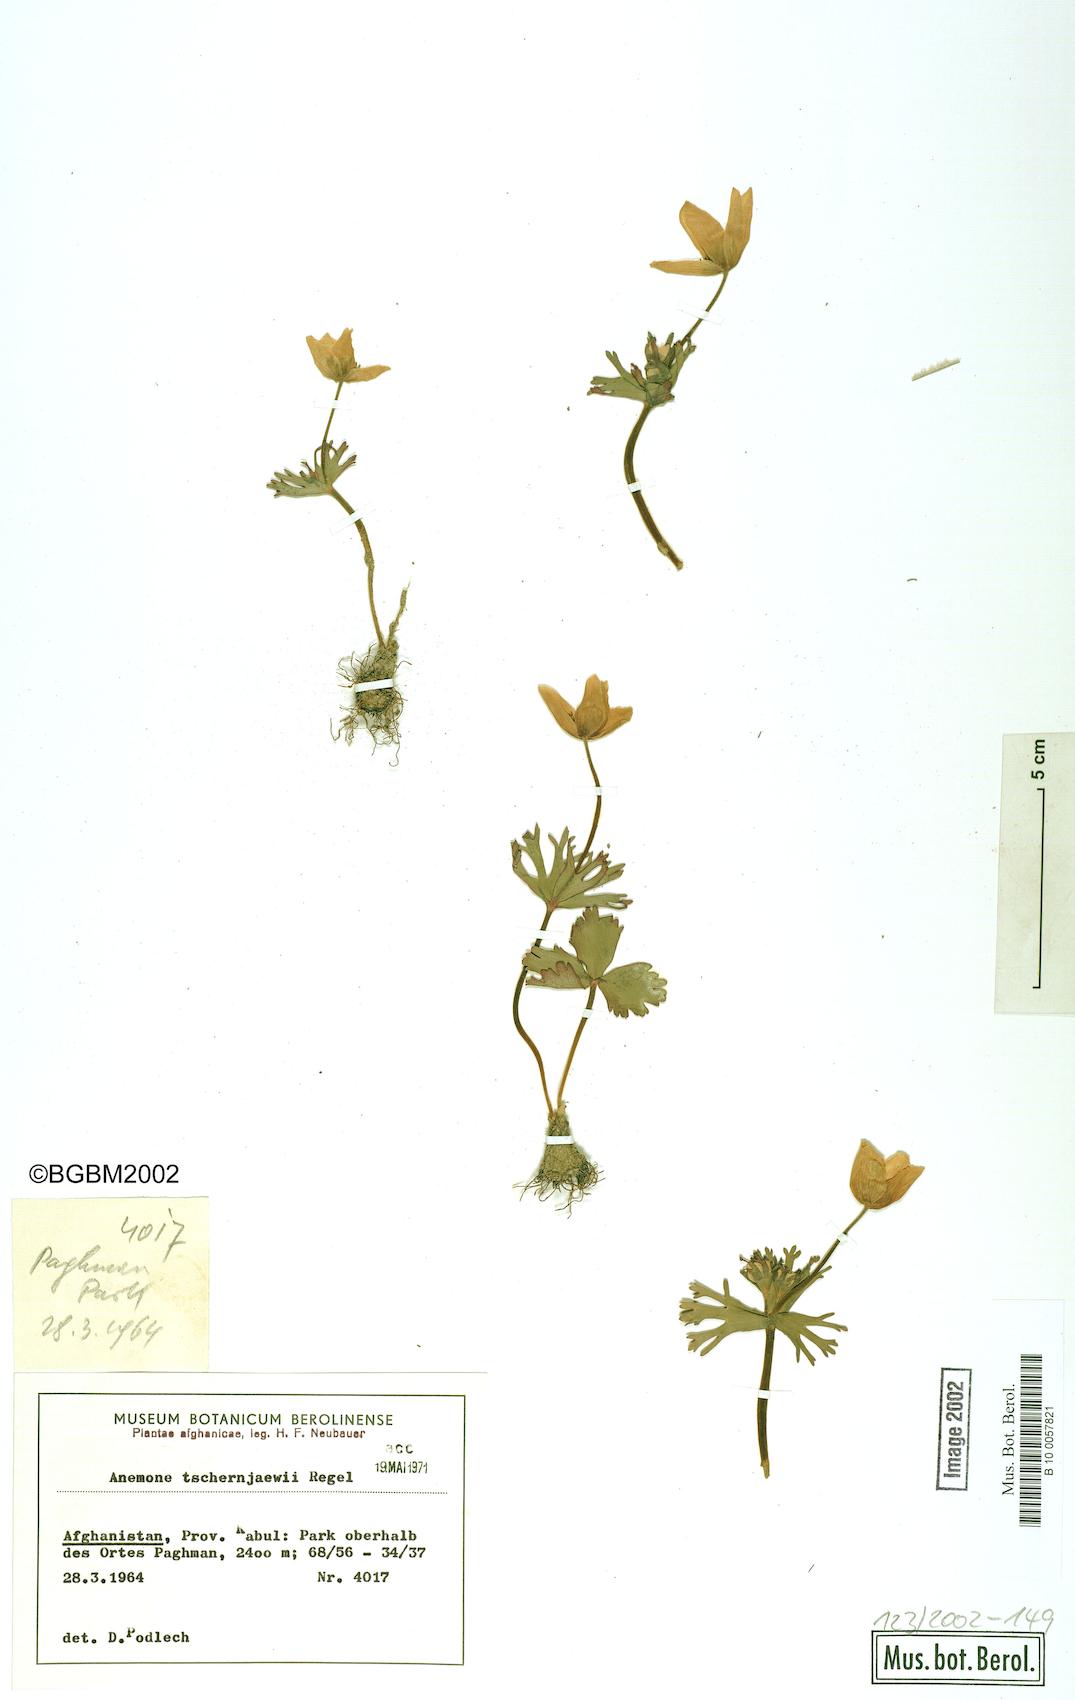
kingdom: Plantae
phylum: Tracheophyta
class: Magnoliopsida
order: Ranunculales
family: Ranunculaceae
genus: Anemone
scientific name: Anemone tschernaewii
